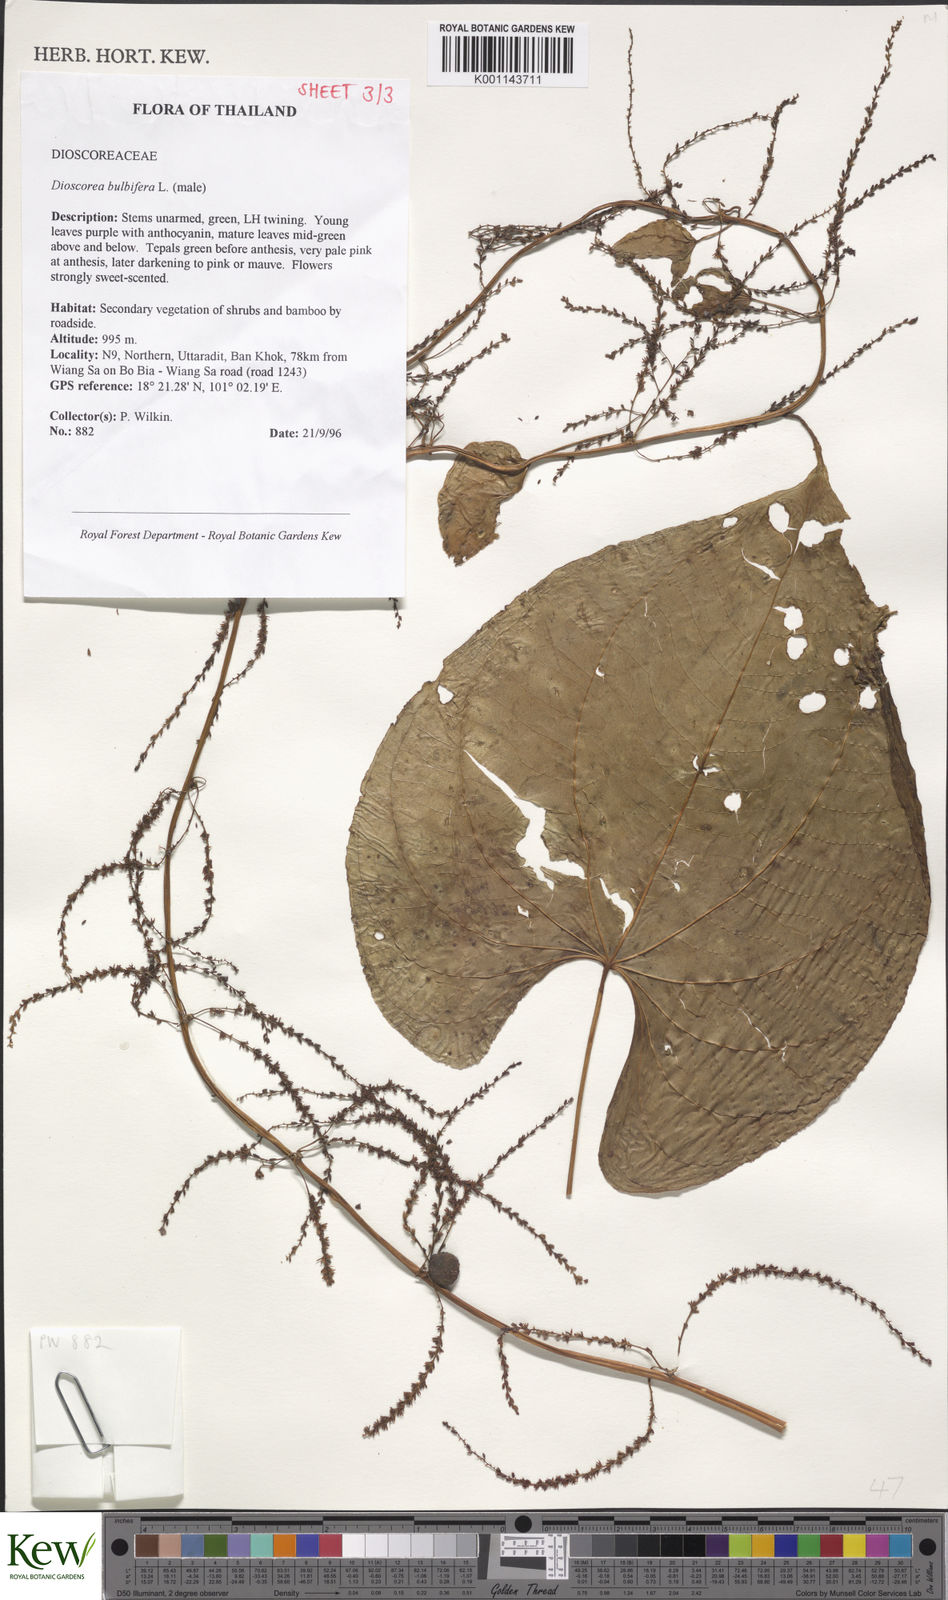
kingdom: Plantae
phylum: Tracheophyta
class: Liliopsida
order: Dioscoreales
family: Dioscoreaceae
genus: Dioscorea
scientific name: Dioscorea bulbifera
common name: Air yam
